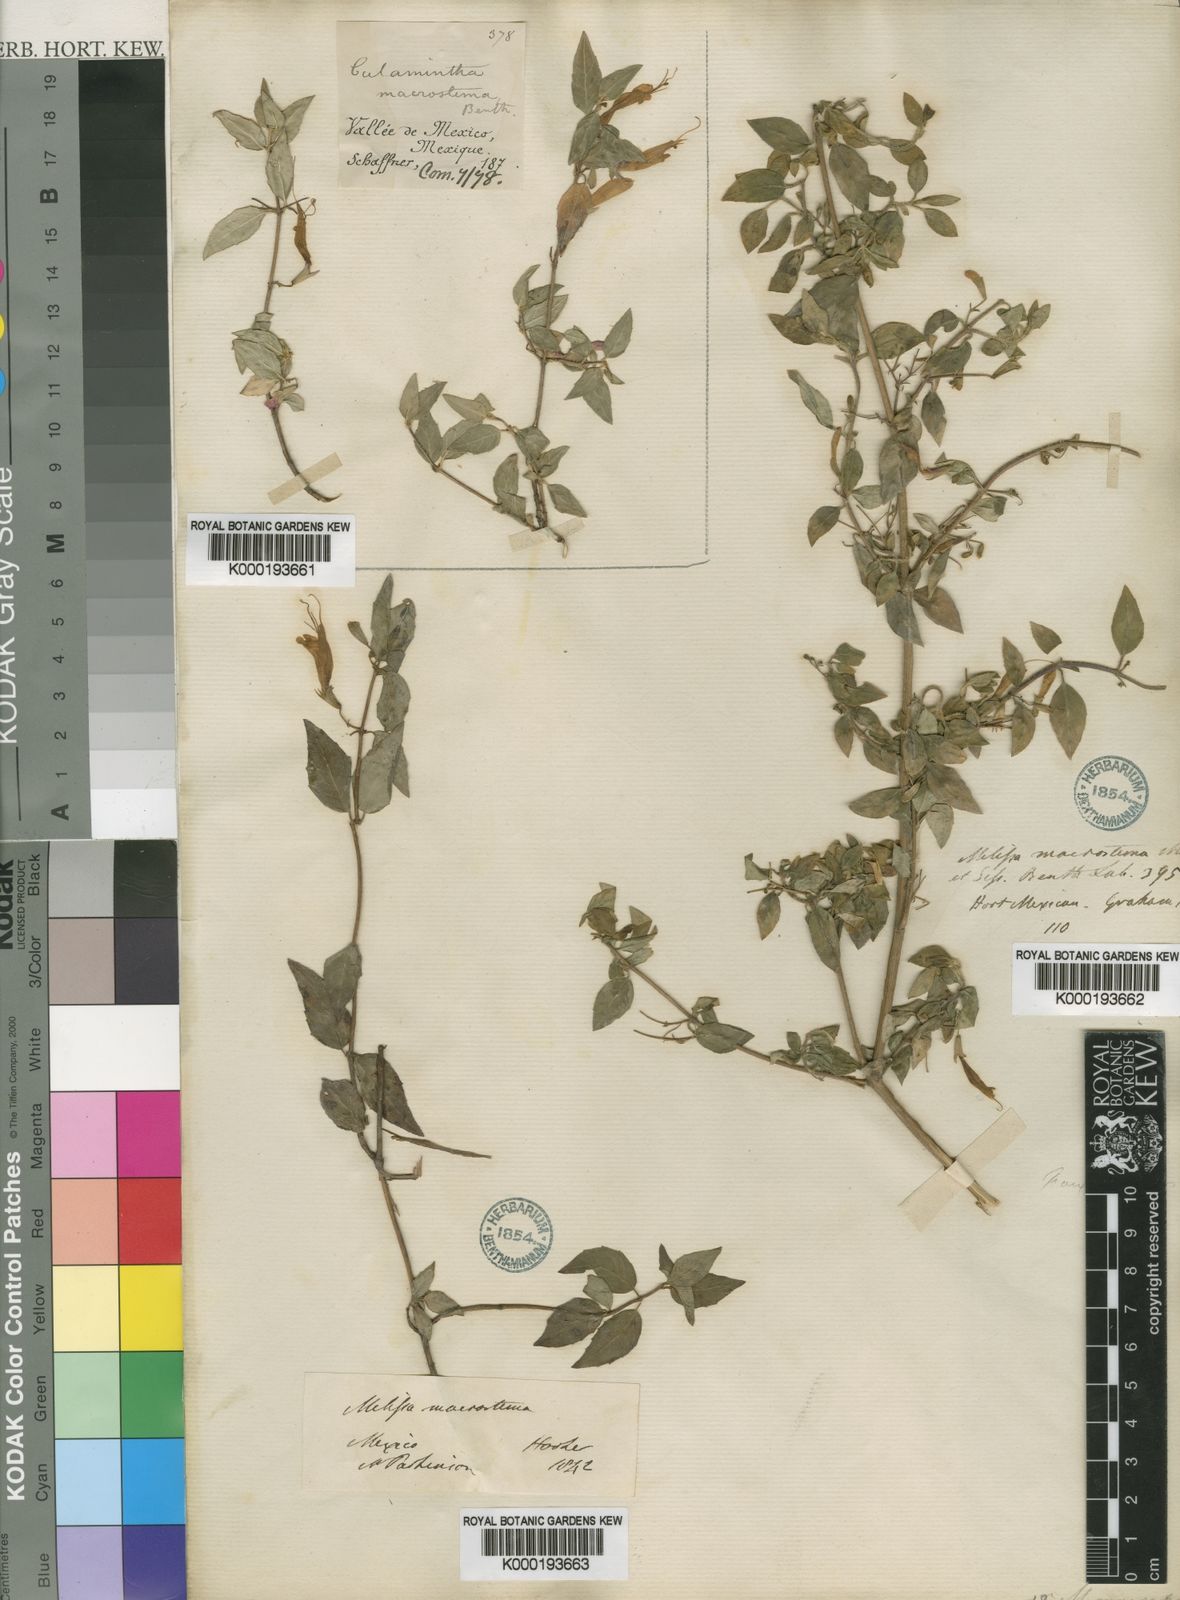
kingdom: Plantae
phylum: Tracheophyta
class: Magnoliopsida
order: Lamiales
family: Lamiaceae
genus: Clinopodium
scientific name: Clinopodium macrostemum
